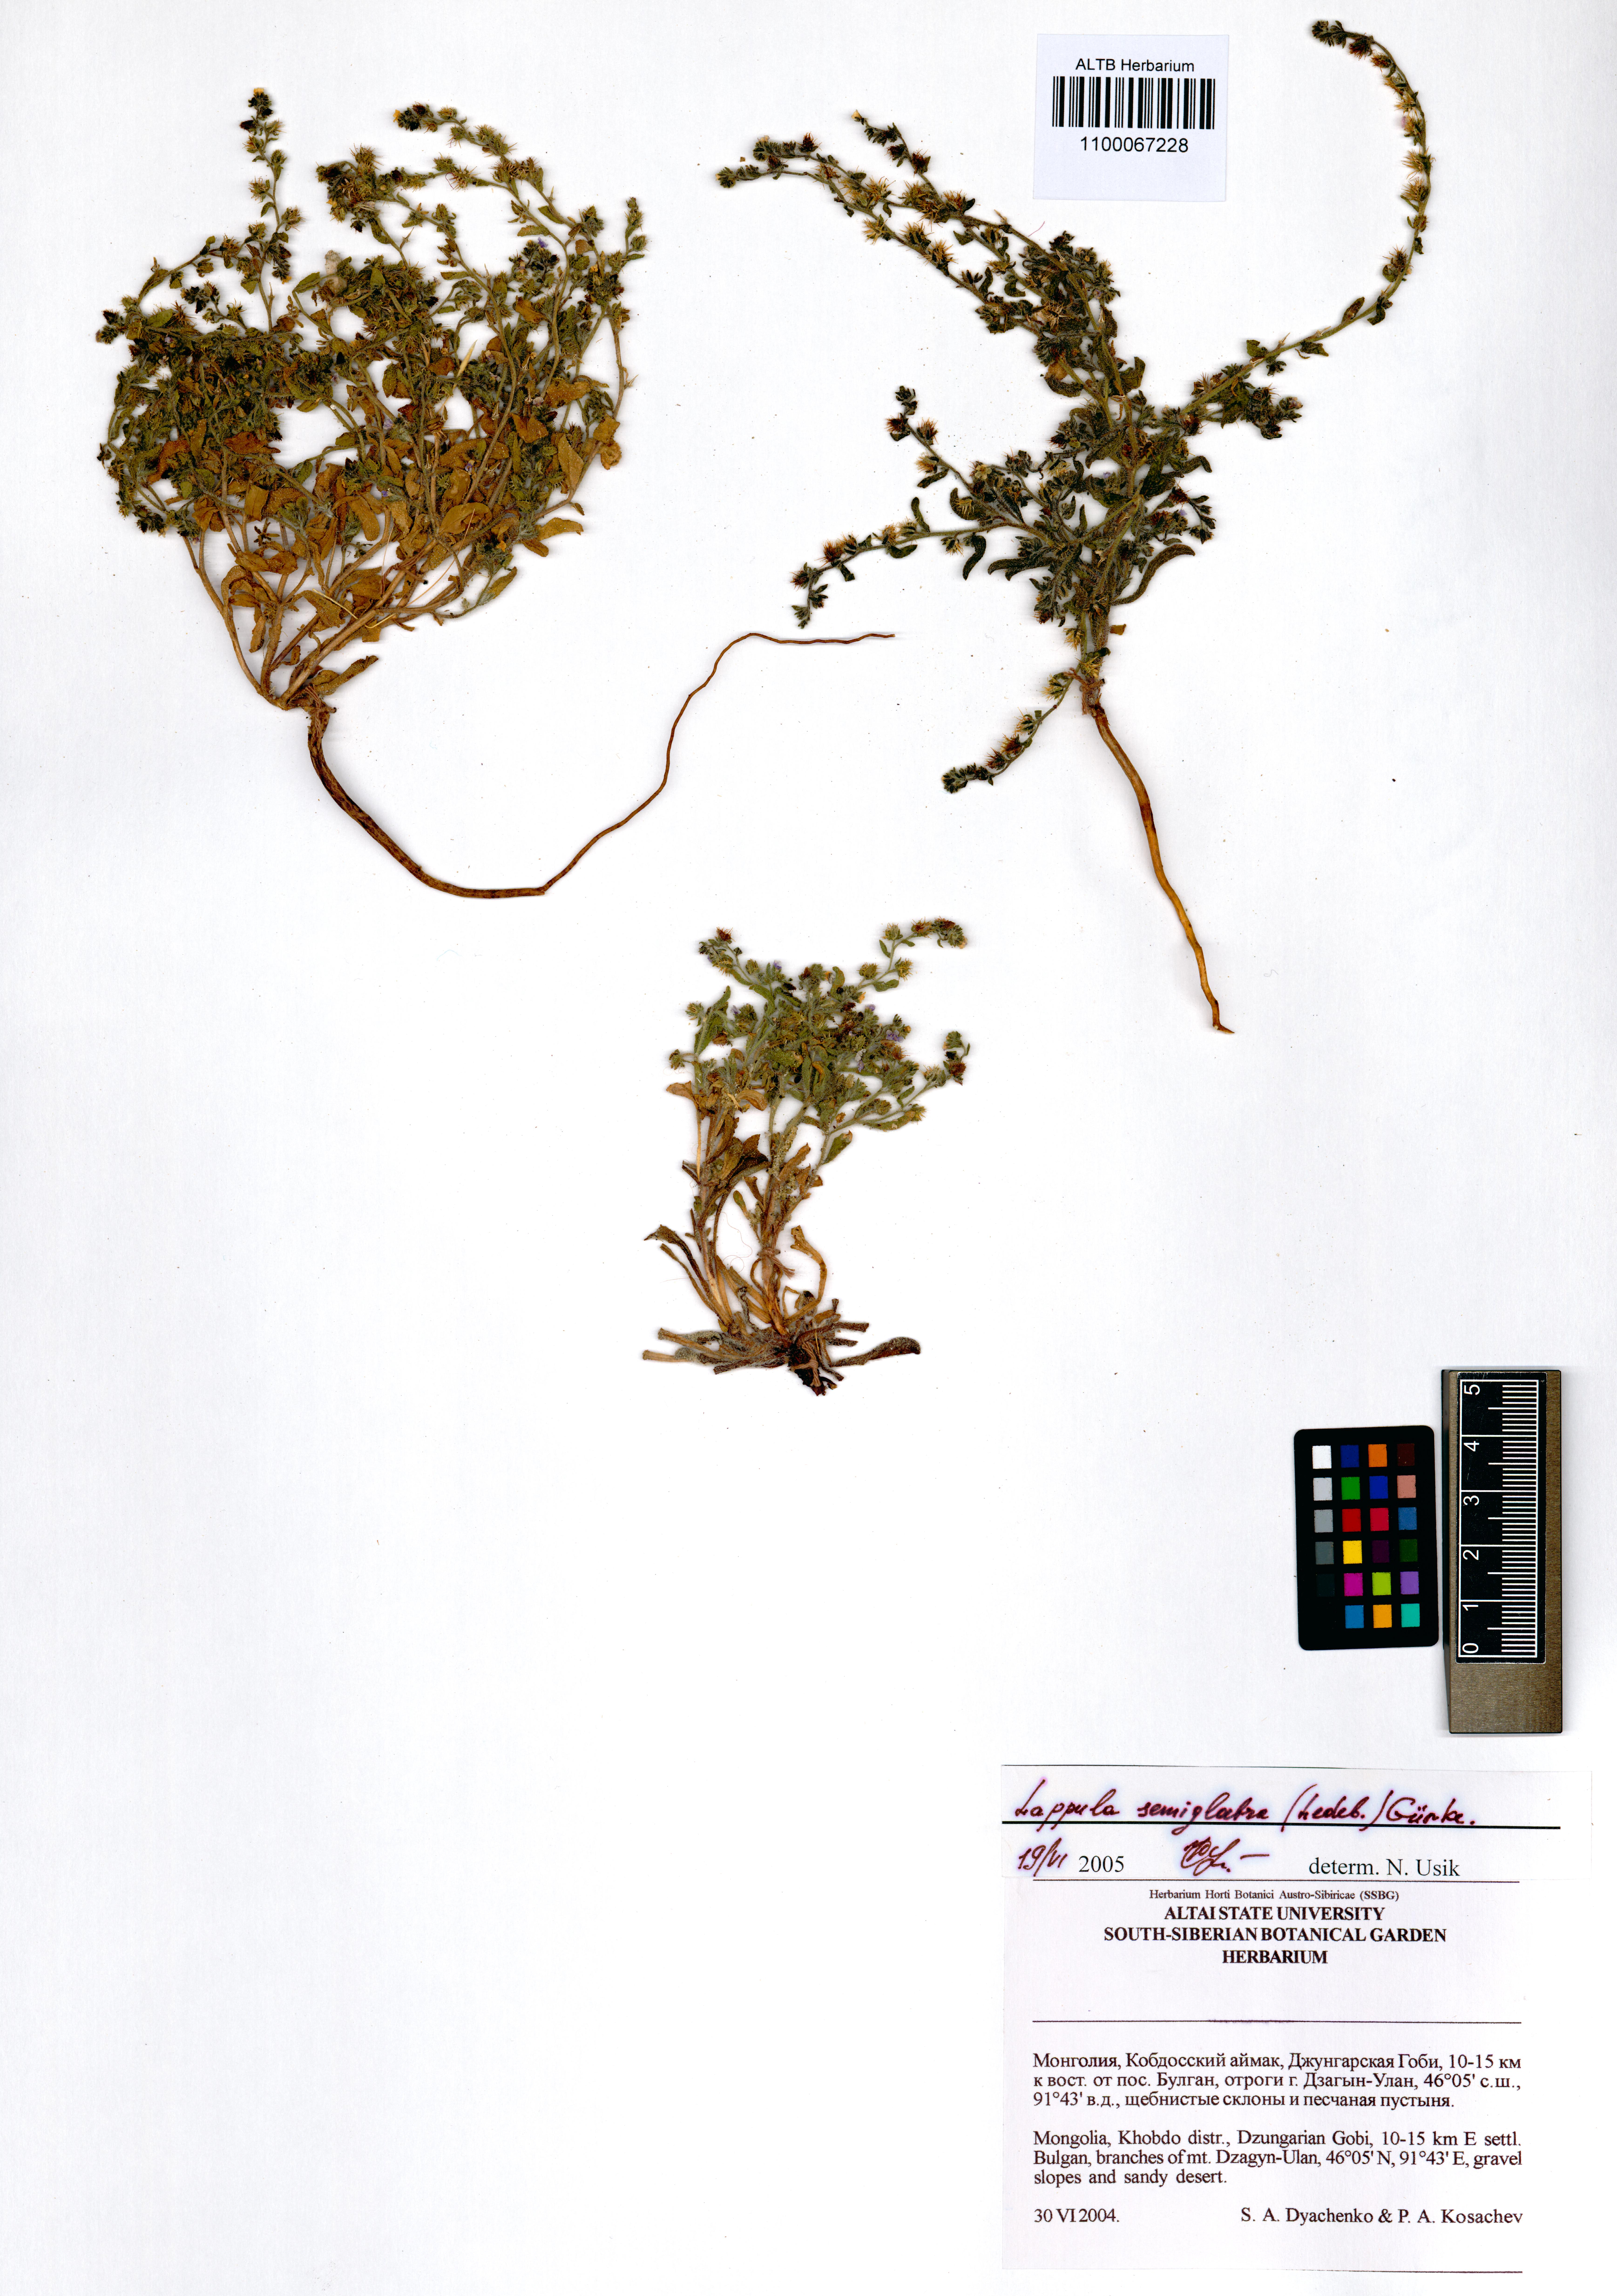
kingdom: Plantae
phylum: Tracheophyta
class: Magnoliopsida
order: Boraginales
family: Boraginaceae
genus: Lappula
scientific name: Lappula patula
